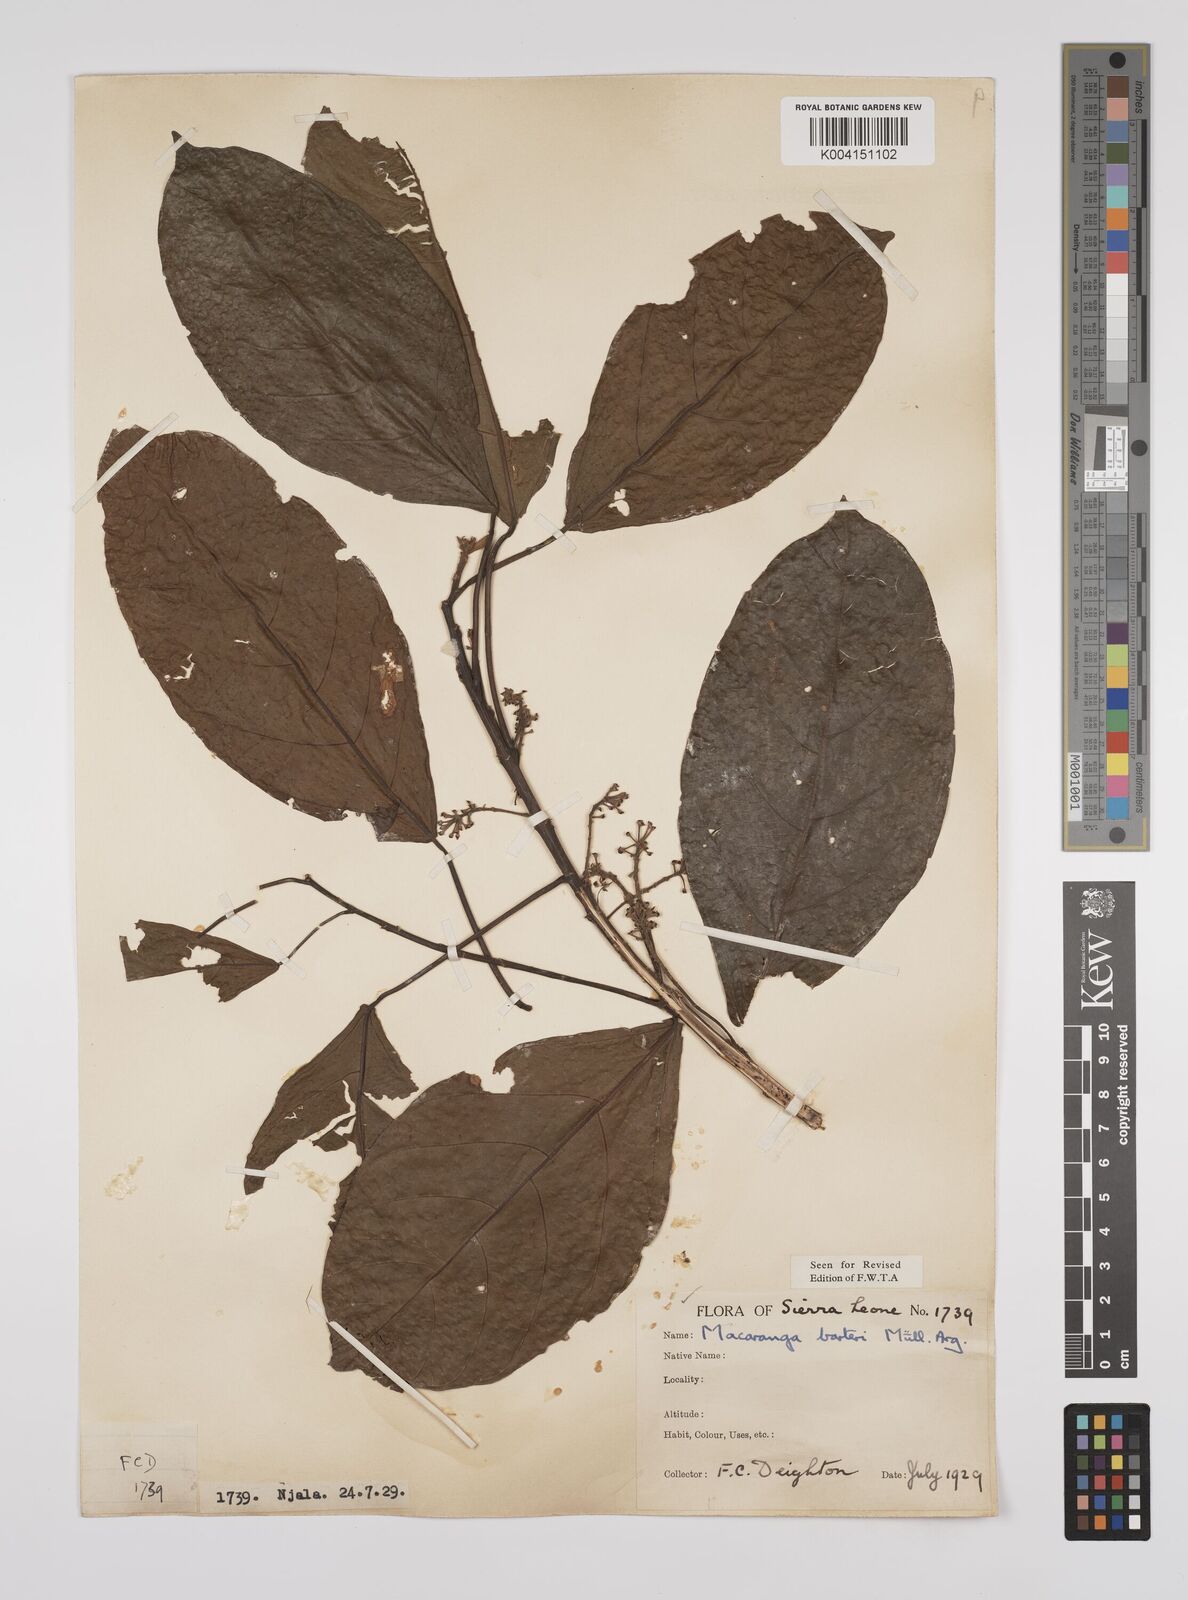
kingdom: Plantae
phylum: Tracheophyta
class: Magnoliopsida
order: Malpighiales
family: Euphorbiaceae
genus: Macaranga
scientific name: Macaranga barteri
